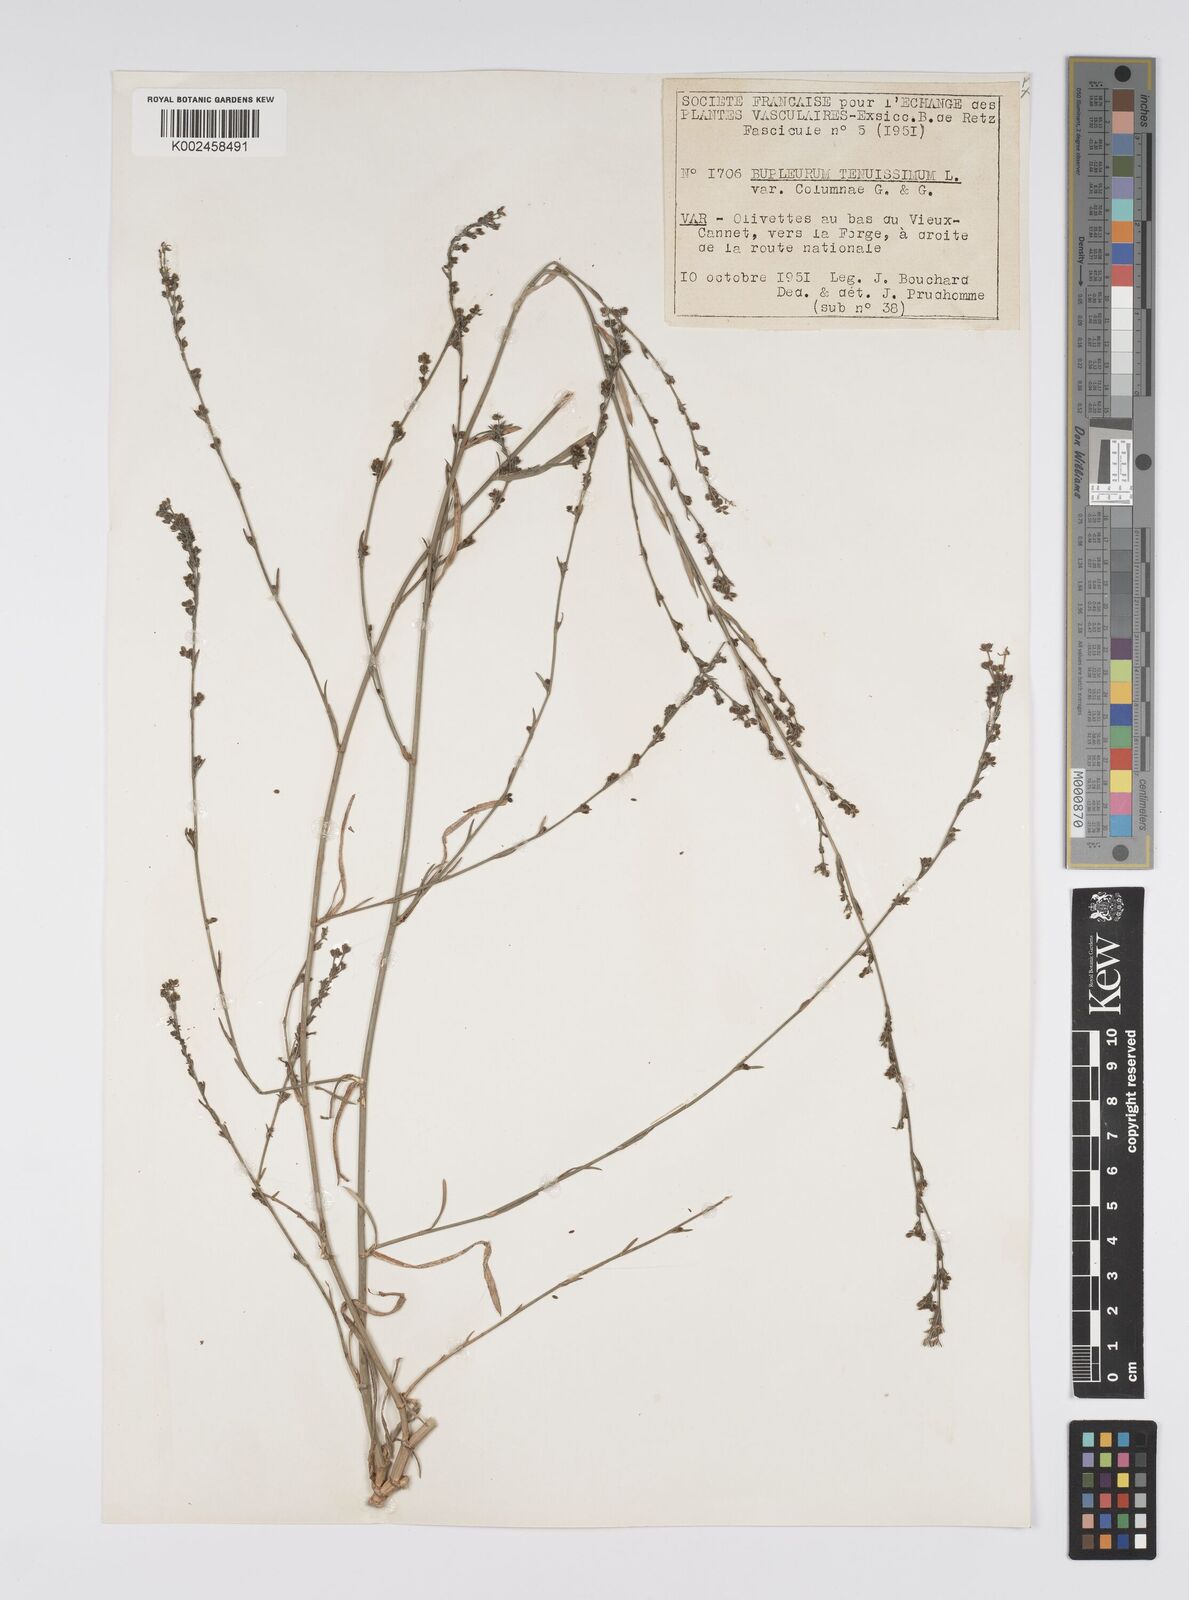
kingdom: Plantae
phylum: Tracheophyta
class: Magnoliopsida
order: Apiales
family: Apiaceae
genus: Bupleurum
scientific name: Bupleurum tenuissimum
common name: Slender hare's-ear
